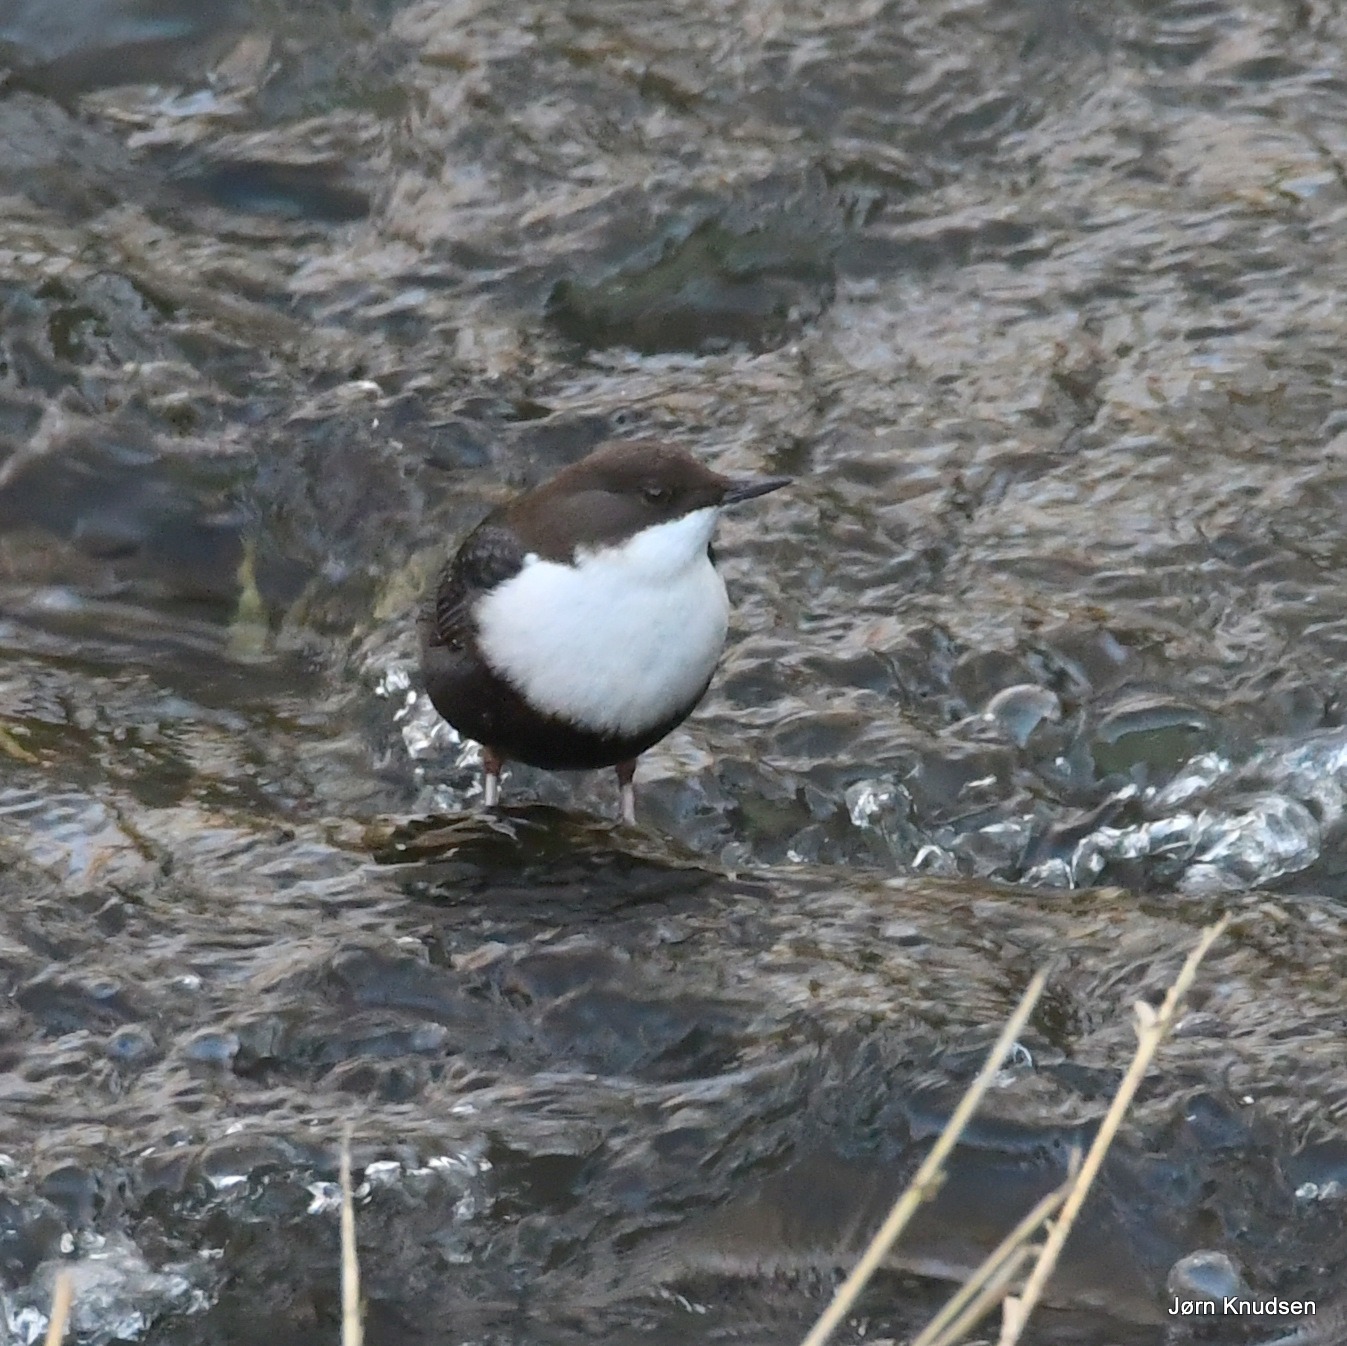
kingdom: Animalia
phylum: Chordata
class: Aves
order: Passeriformes
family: Cinclidae
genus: Cinclus
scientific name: Cinclus cinclus
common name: Vandstær
